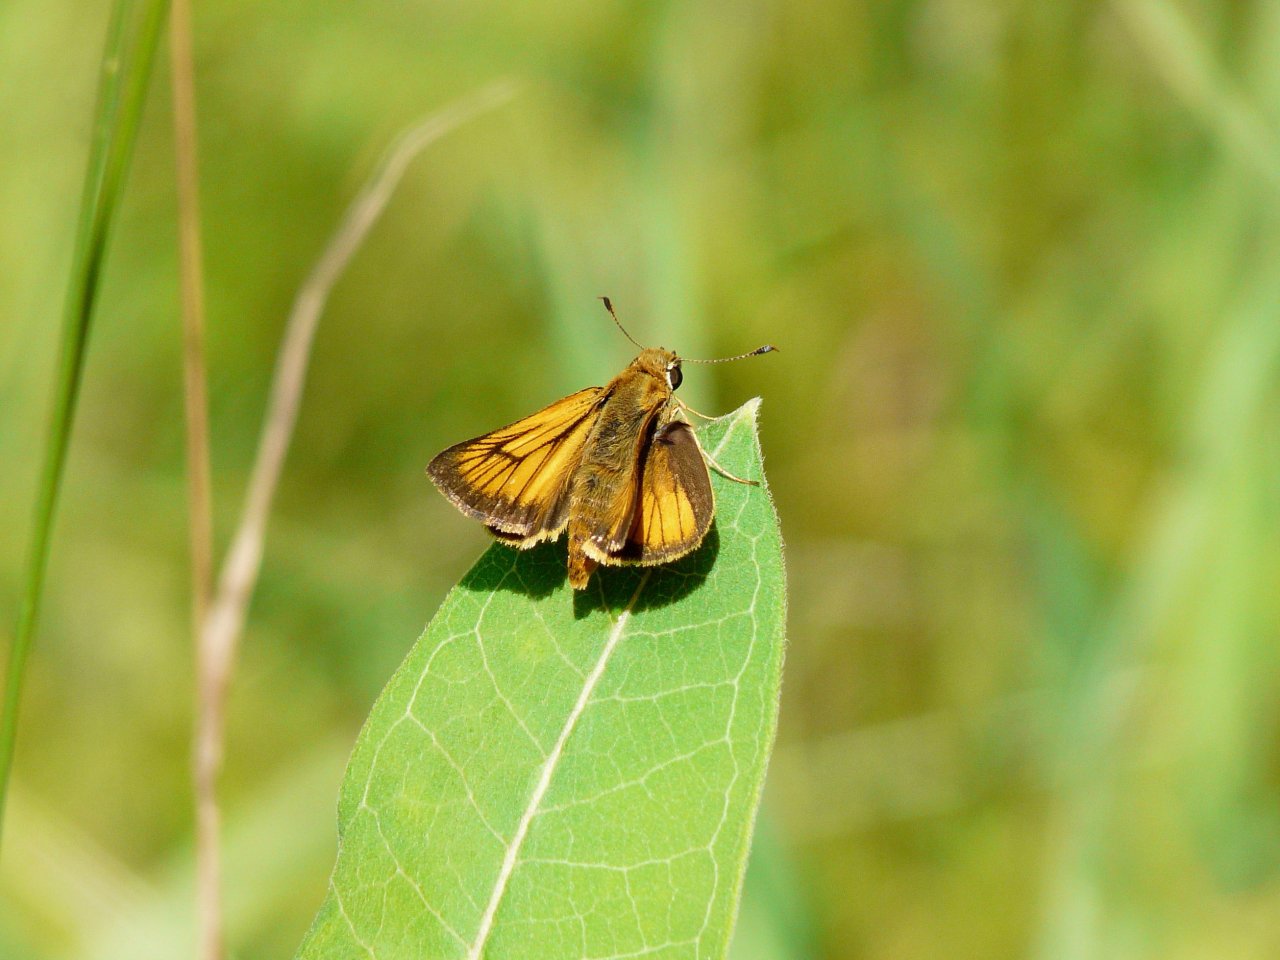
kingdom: Animalia
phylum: Arthropoda
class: Insecta
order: Lepidoptera
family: Hesperiidae
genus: Atrytone
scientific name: Atrytone delaware
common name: Delaware Skipper
